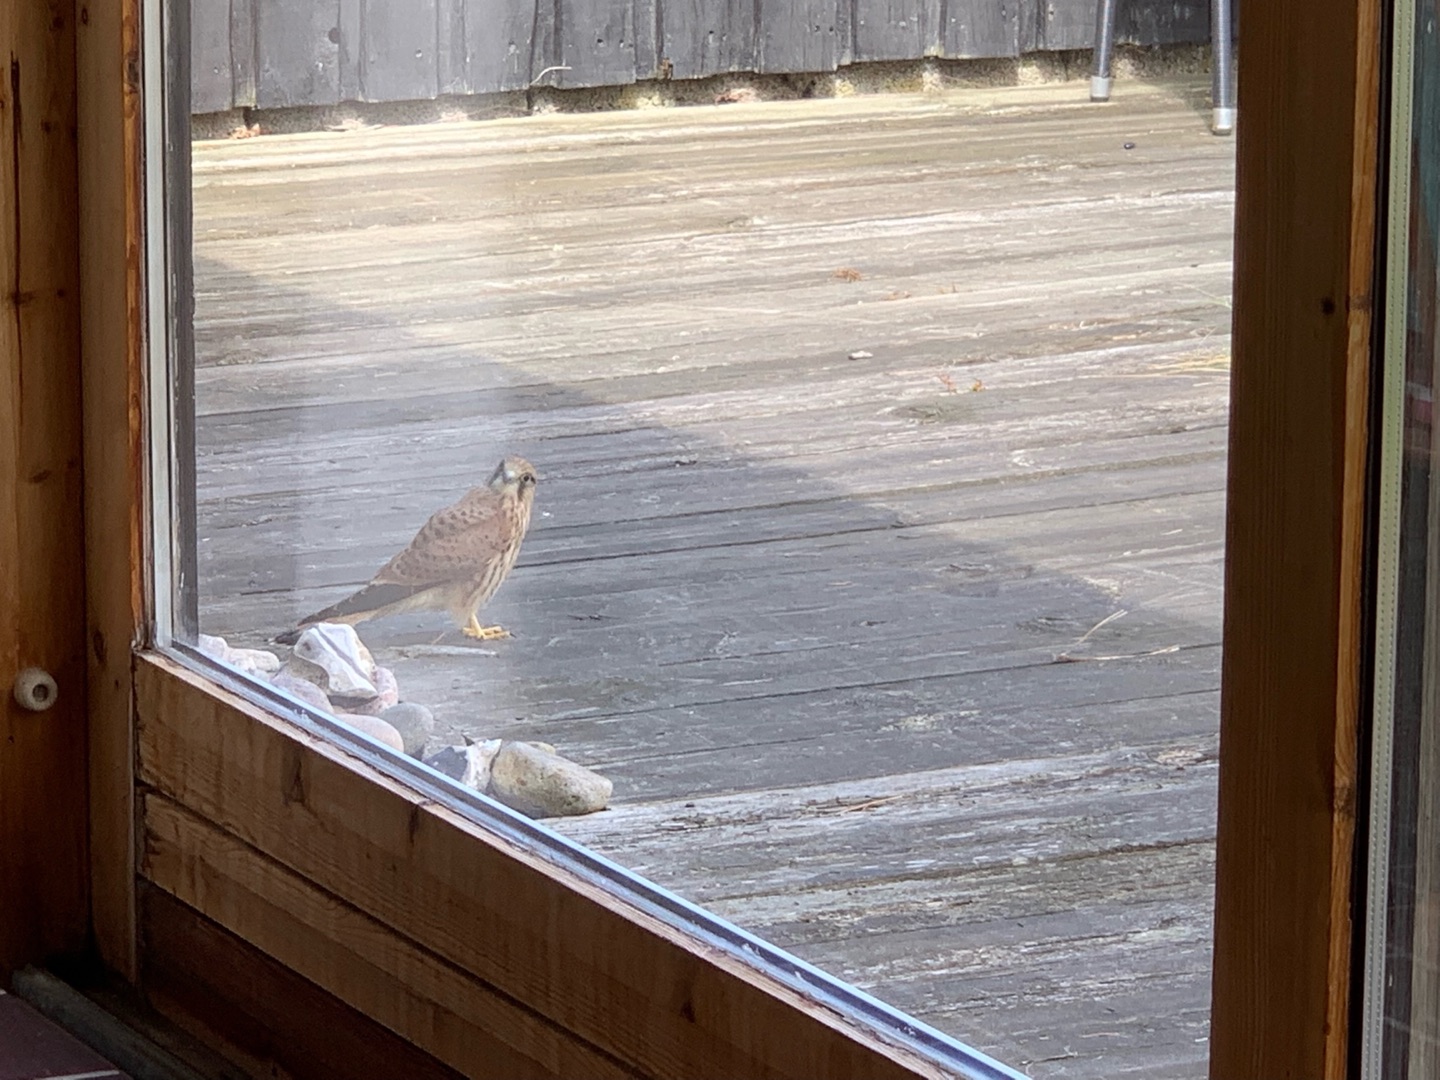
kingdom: Animalia
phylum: Chordata
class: Aves
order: Falconiformes
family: Falconidae
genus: Falco
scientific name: Falco tinnunculus
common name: Tårnfalk
